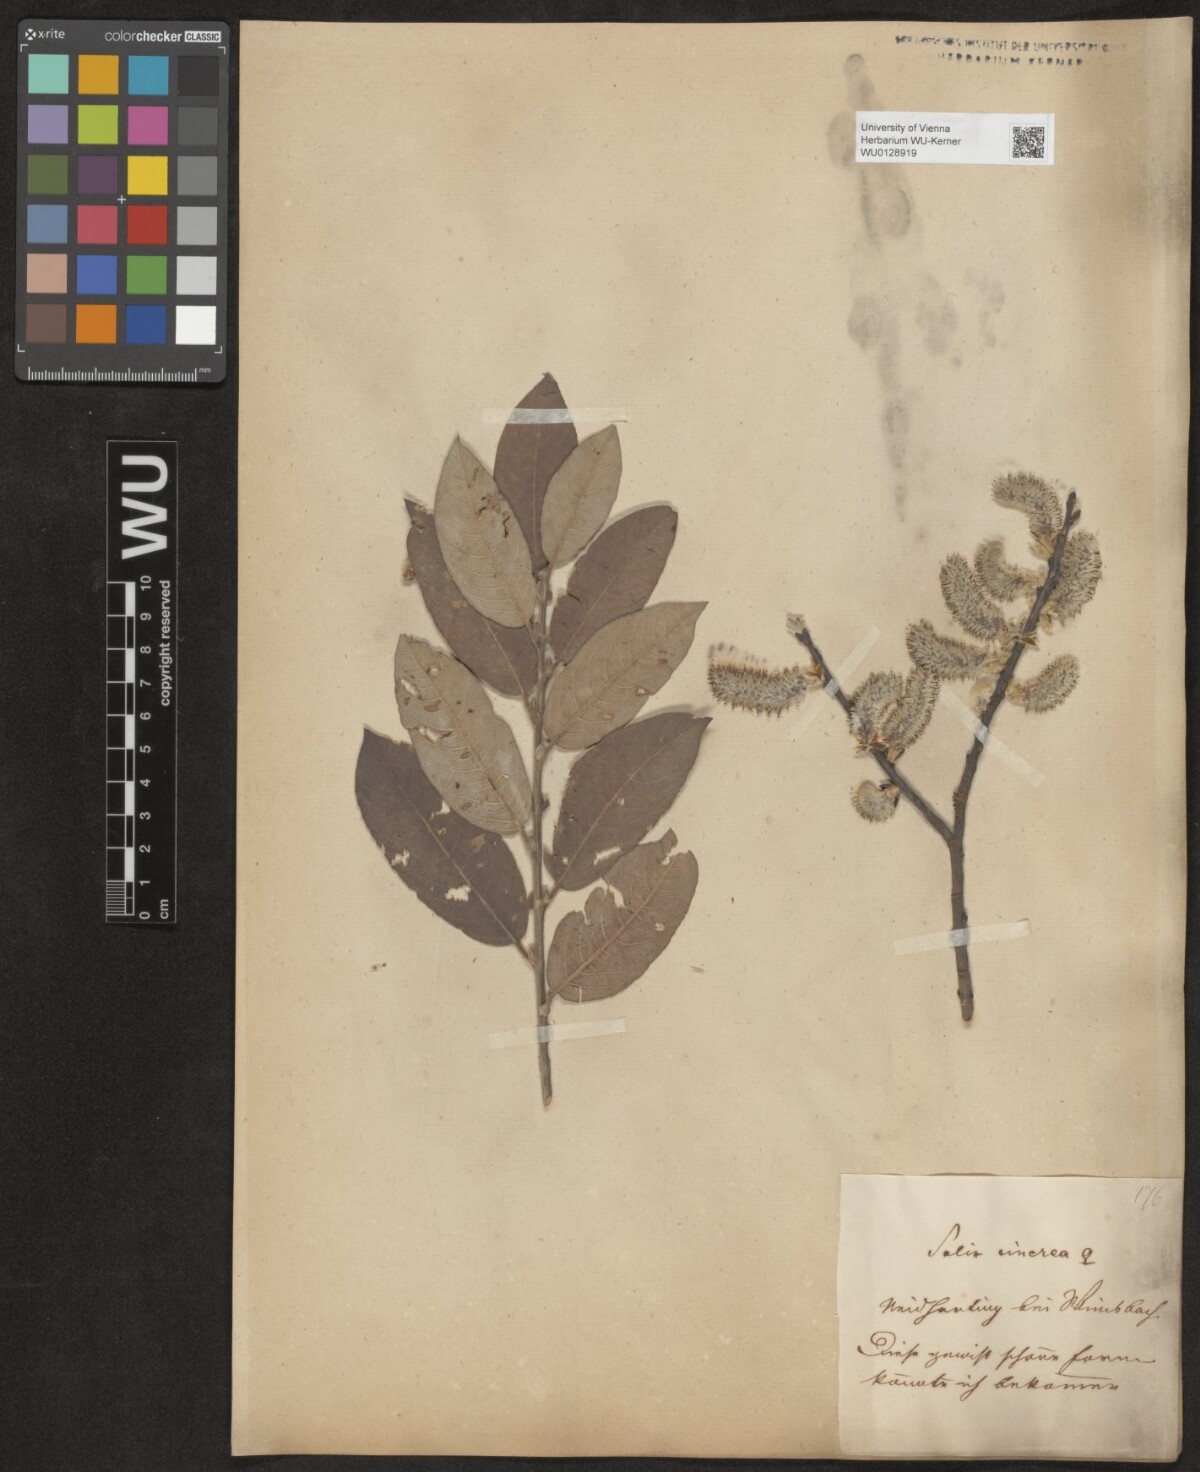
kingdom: Plantae
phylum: Tracheophyta
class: Magnoliopsida
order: Malpighiales
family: Salicaceae
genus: Salix
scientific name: Salix cinerea
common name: Common sallow
